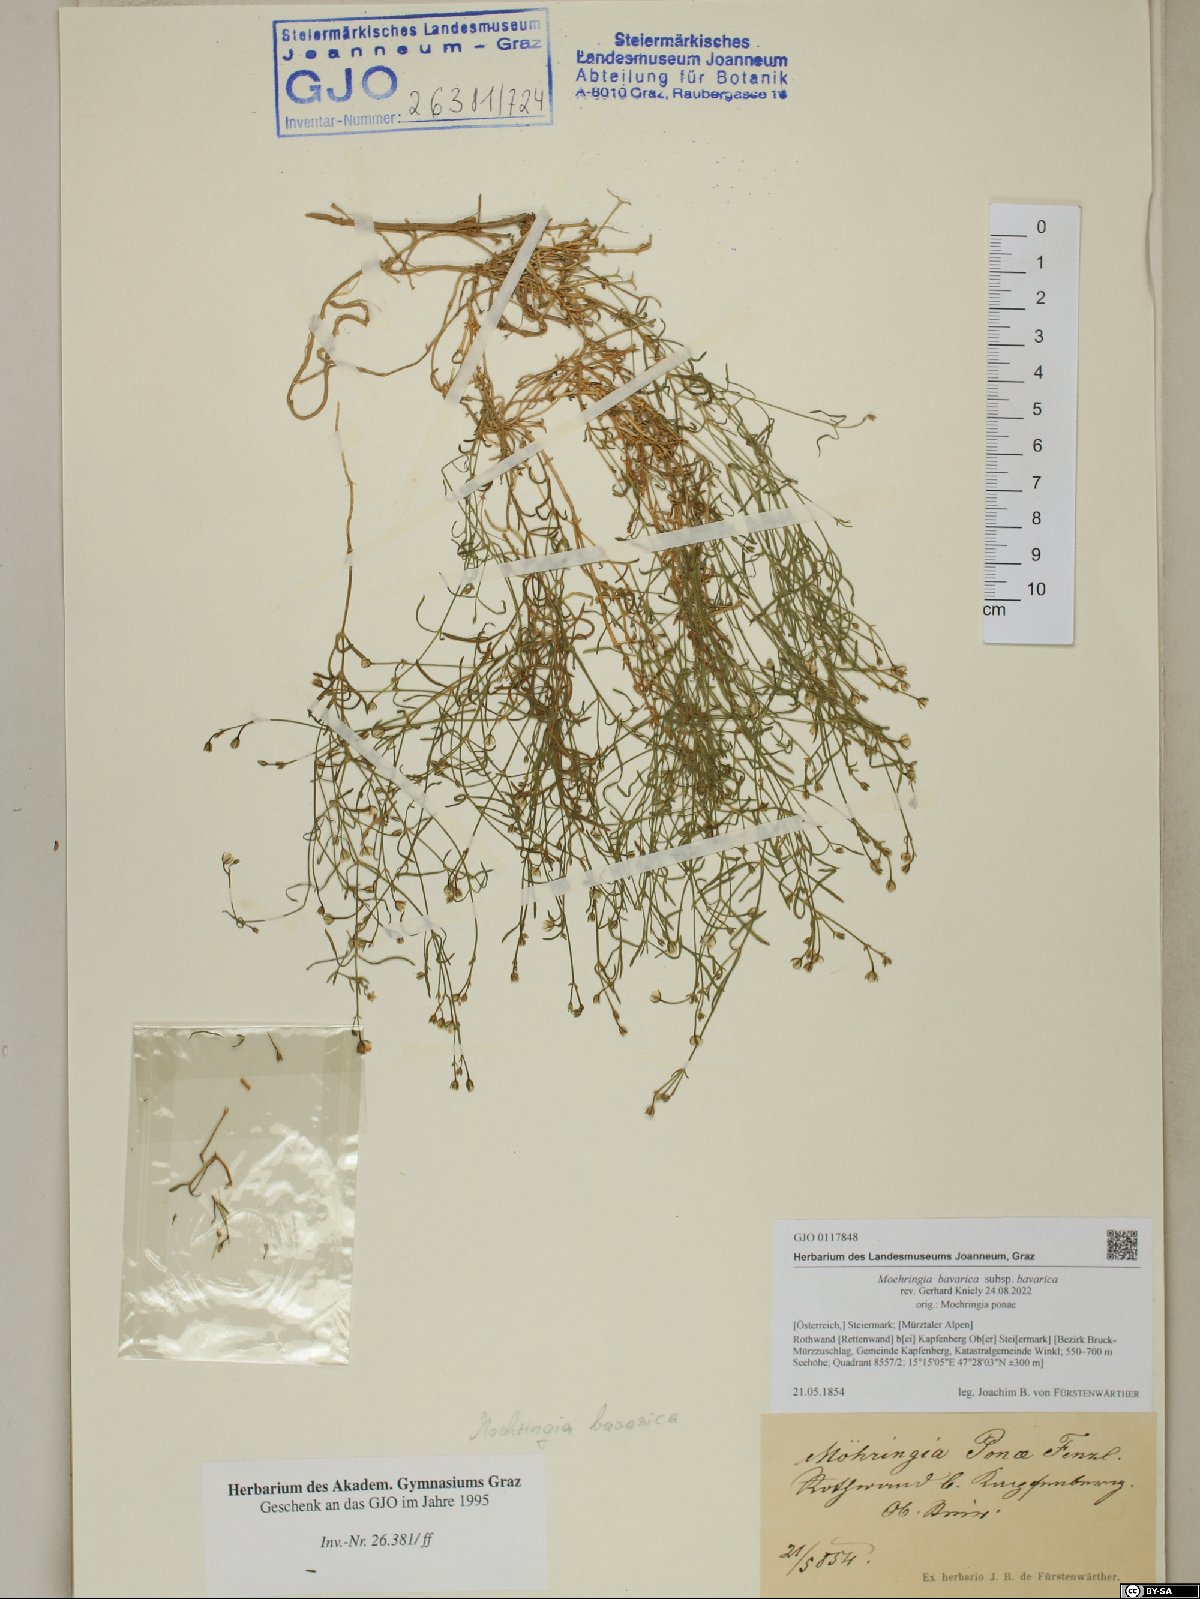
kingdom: Plantae
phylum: Tracheophyta
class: Magnoliopsida
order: Caryophyllales
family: Caryophyllaceae
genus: Moehringia
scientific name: Moehringia bavarica
